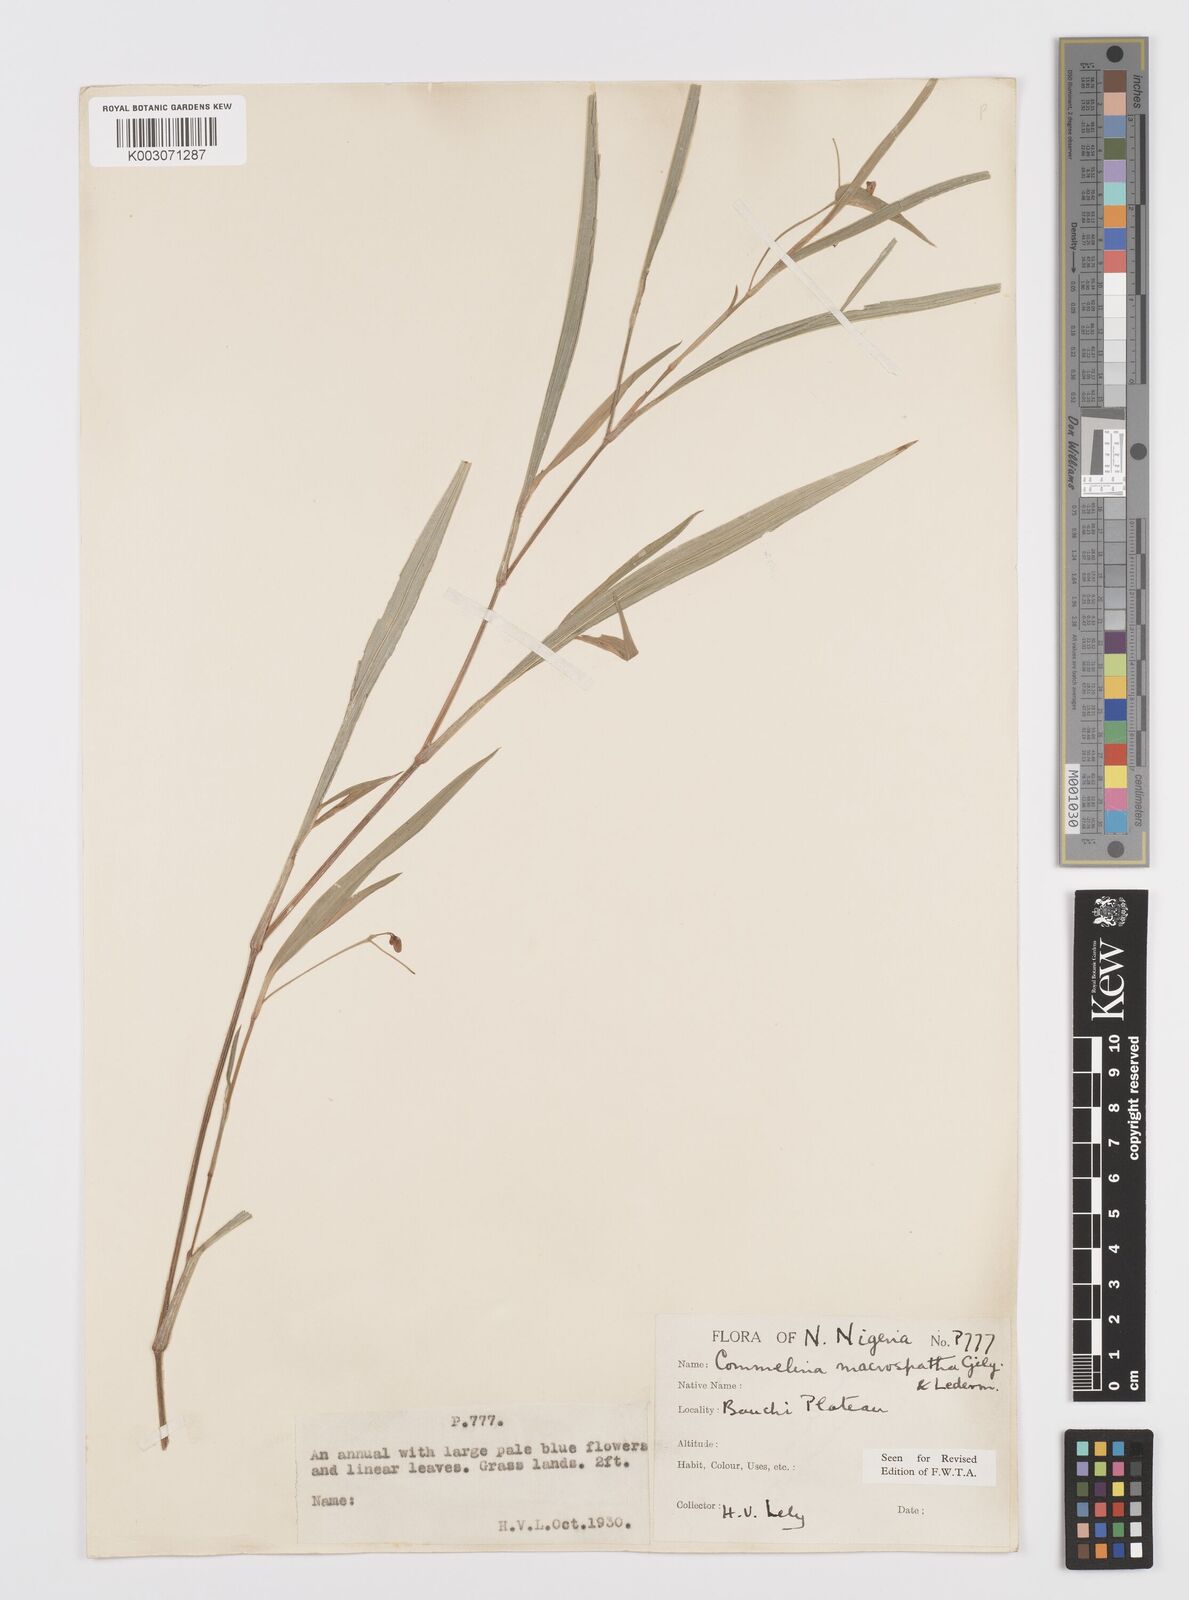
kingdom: Plantae
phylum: Tracheophyta
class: Liliopsida
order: Commelinales
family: Commelinaceae
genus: Commelina
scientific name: Commelina macrospatha
